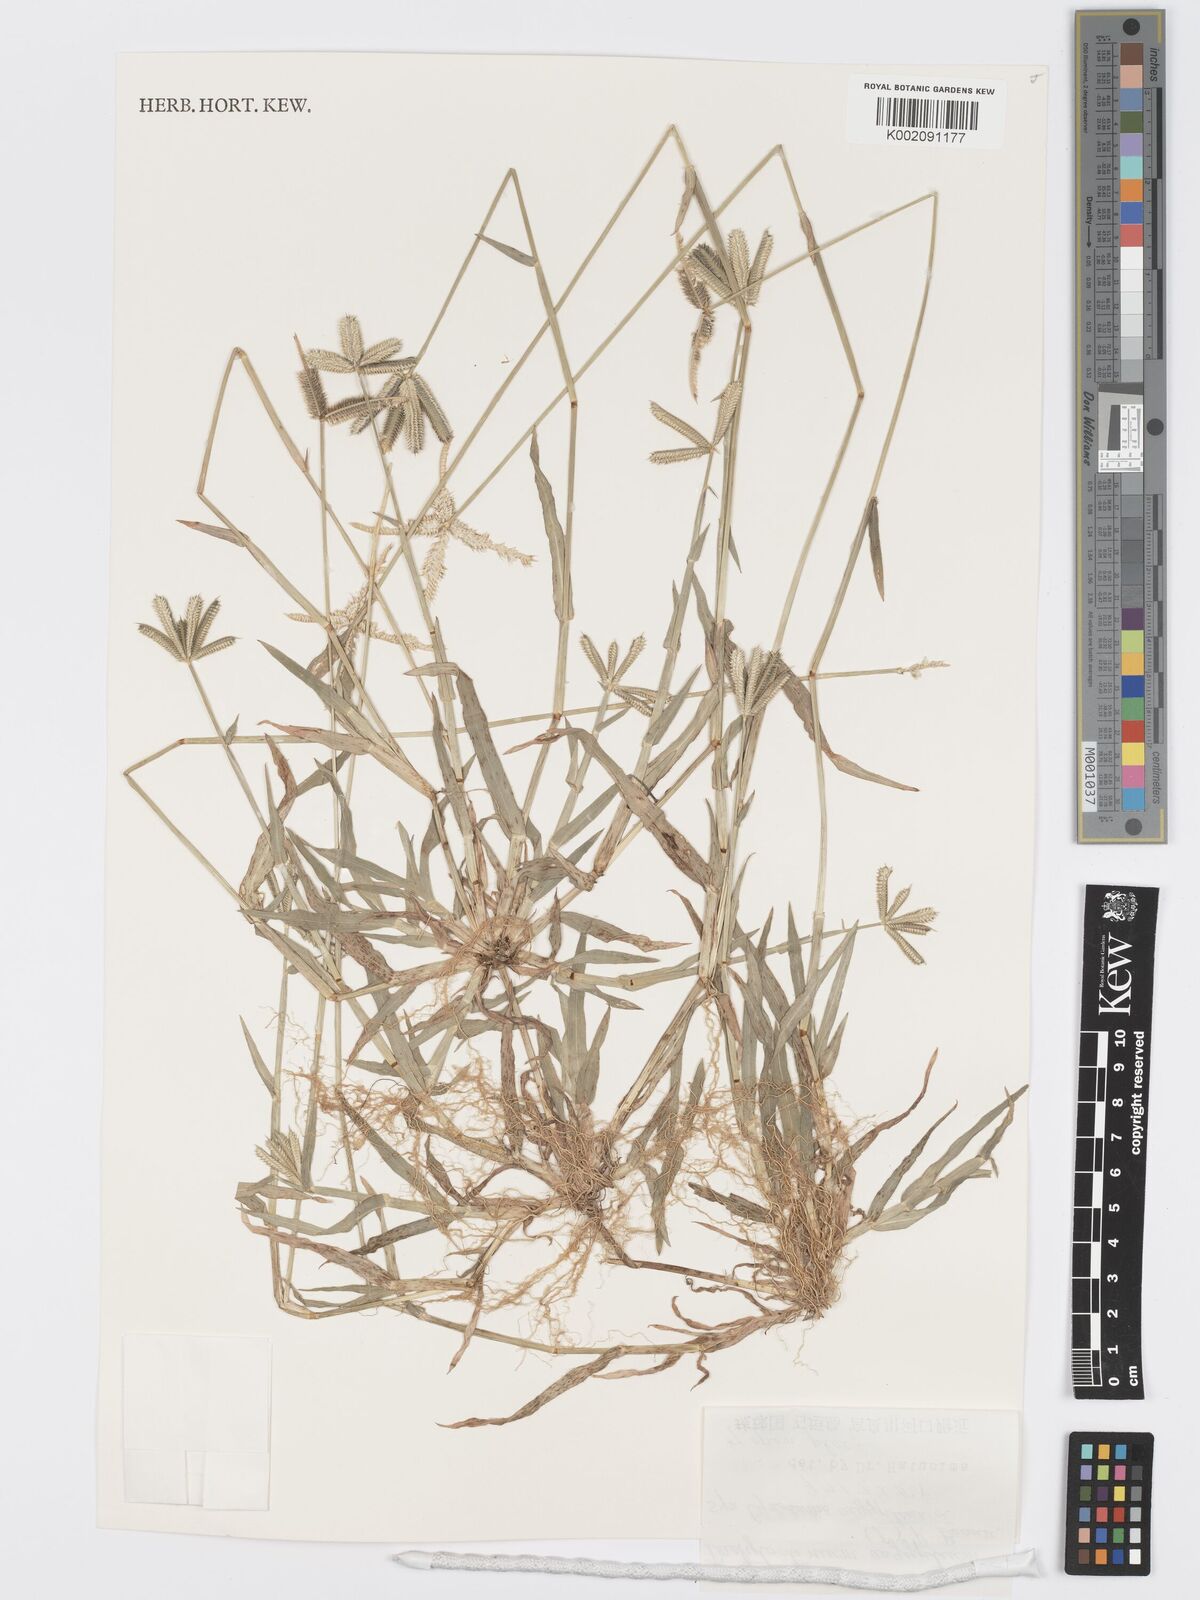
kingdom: Plantae
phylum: Tracheophyta
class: Liliopsida
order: Poales
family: Poaceae
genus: Dactyloctenium
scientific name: Dactyloctenium
